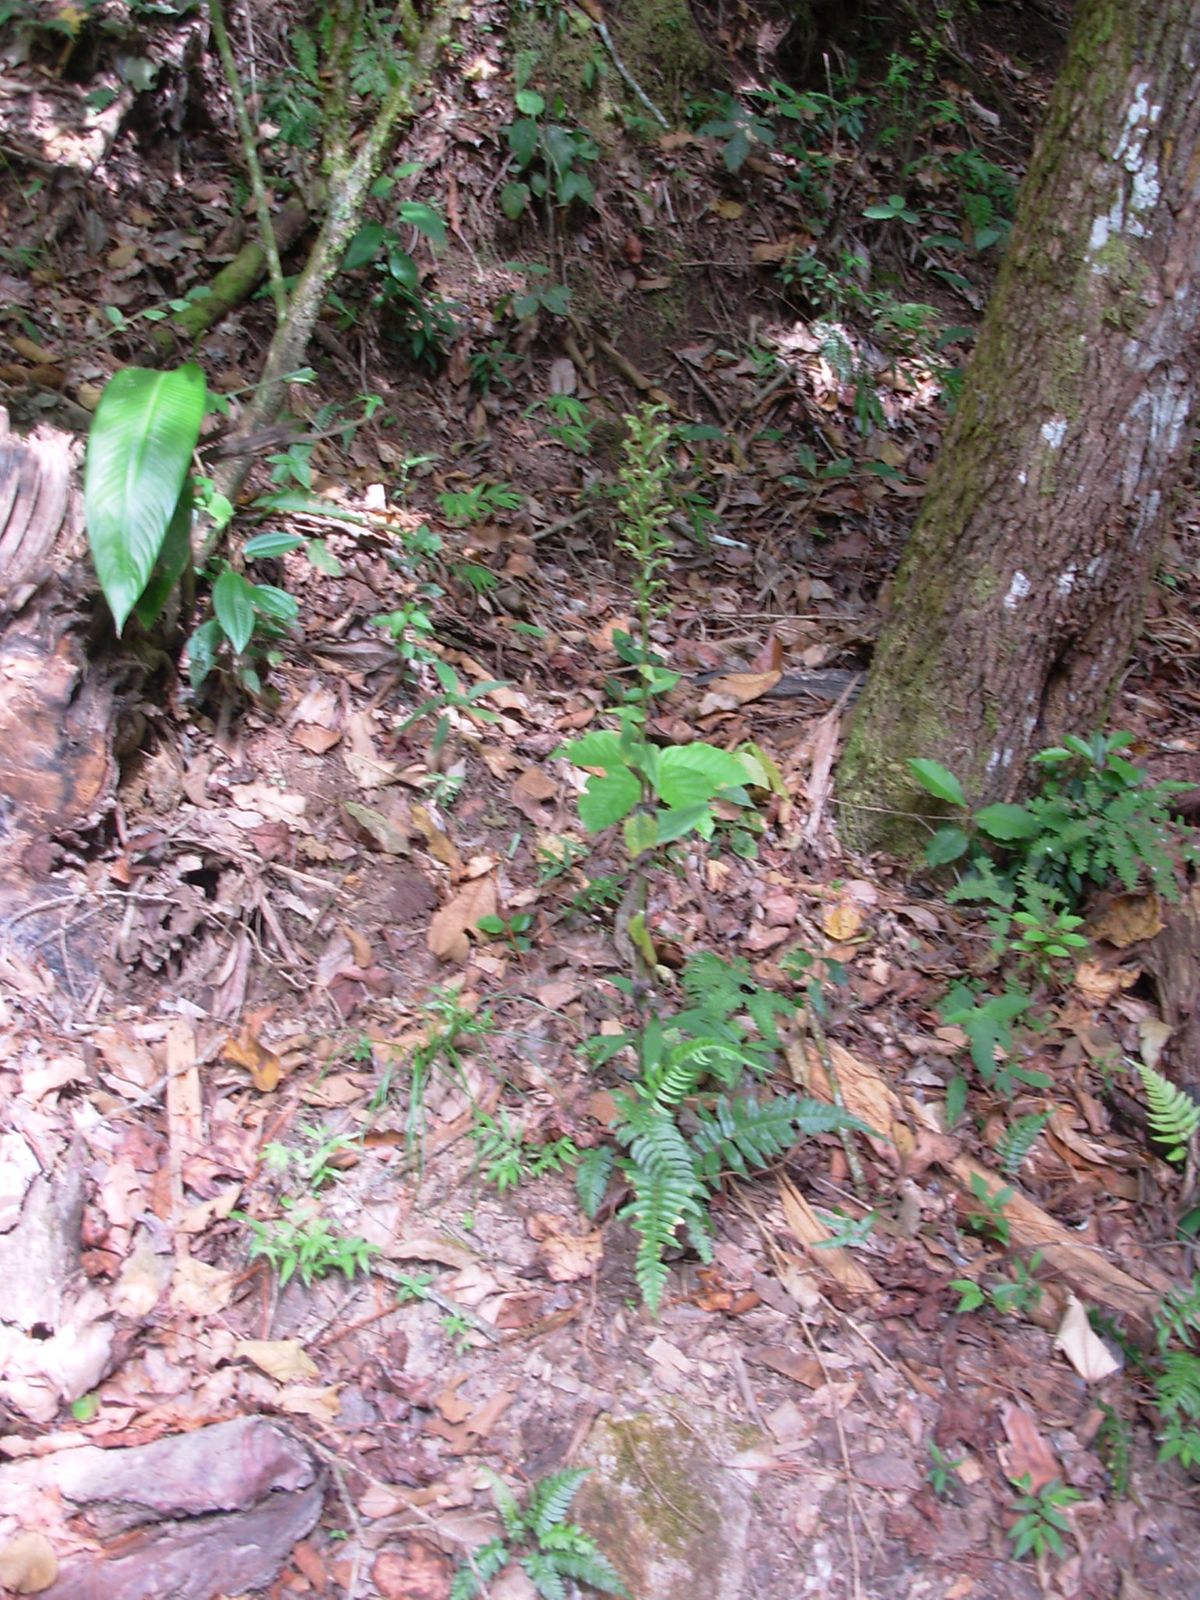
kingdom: Plantae
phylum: Tracheophyta
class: Liliopsida
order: Asparagales
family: Orchidaceae
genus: Habenaria
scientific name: Habenaria strictissima
